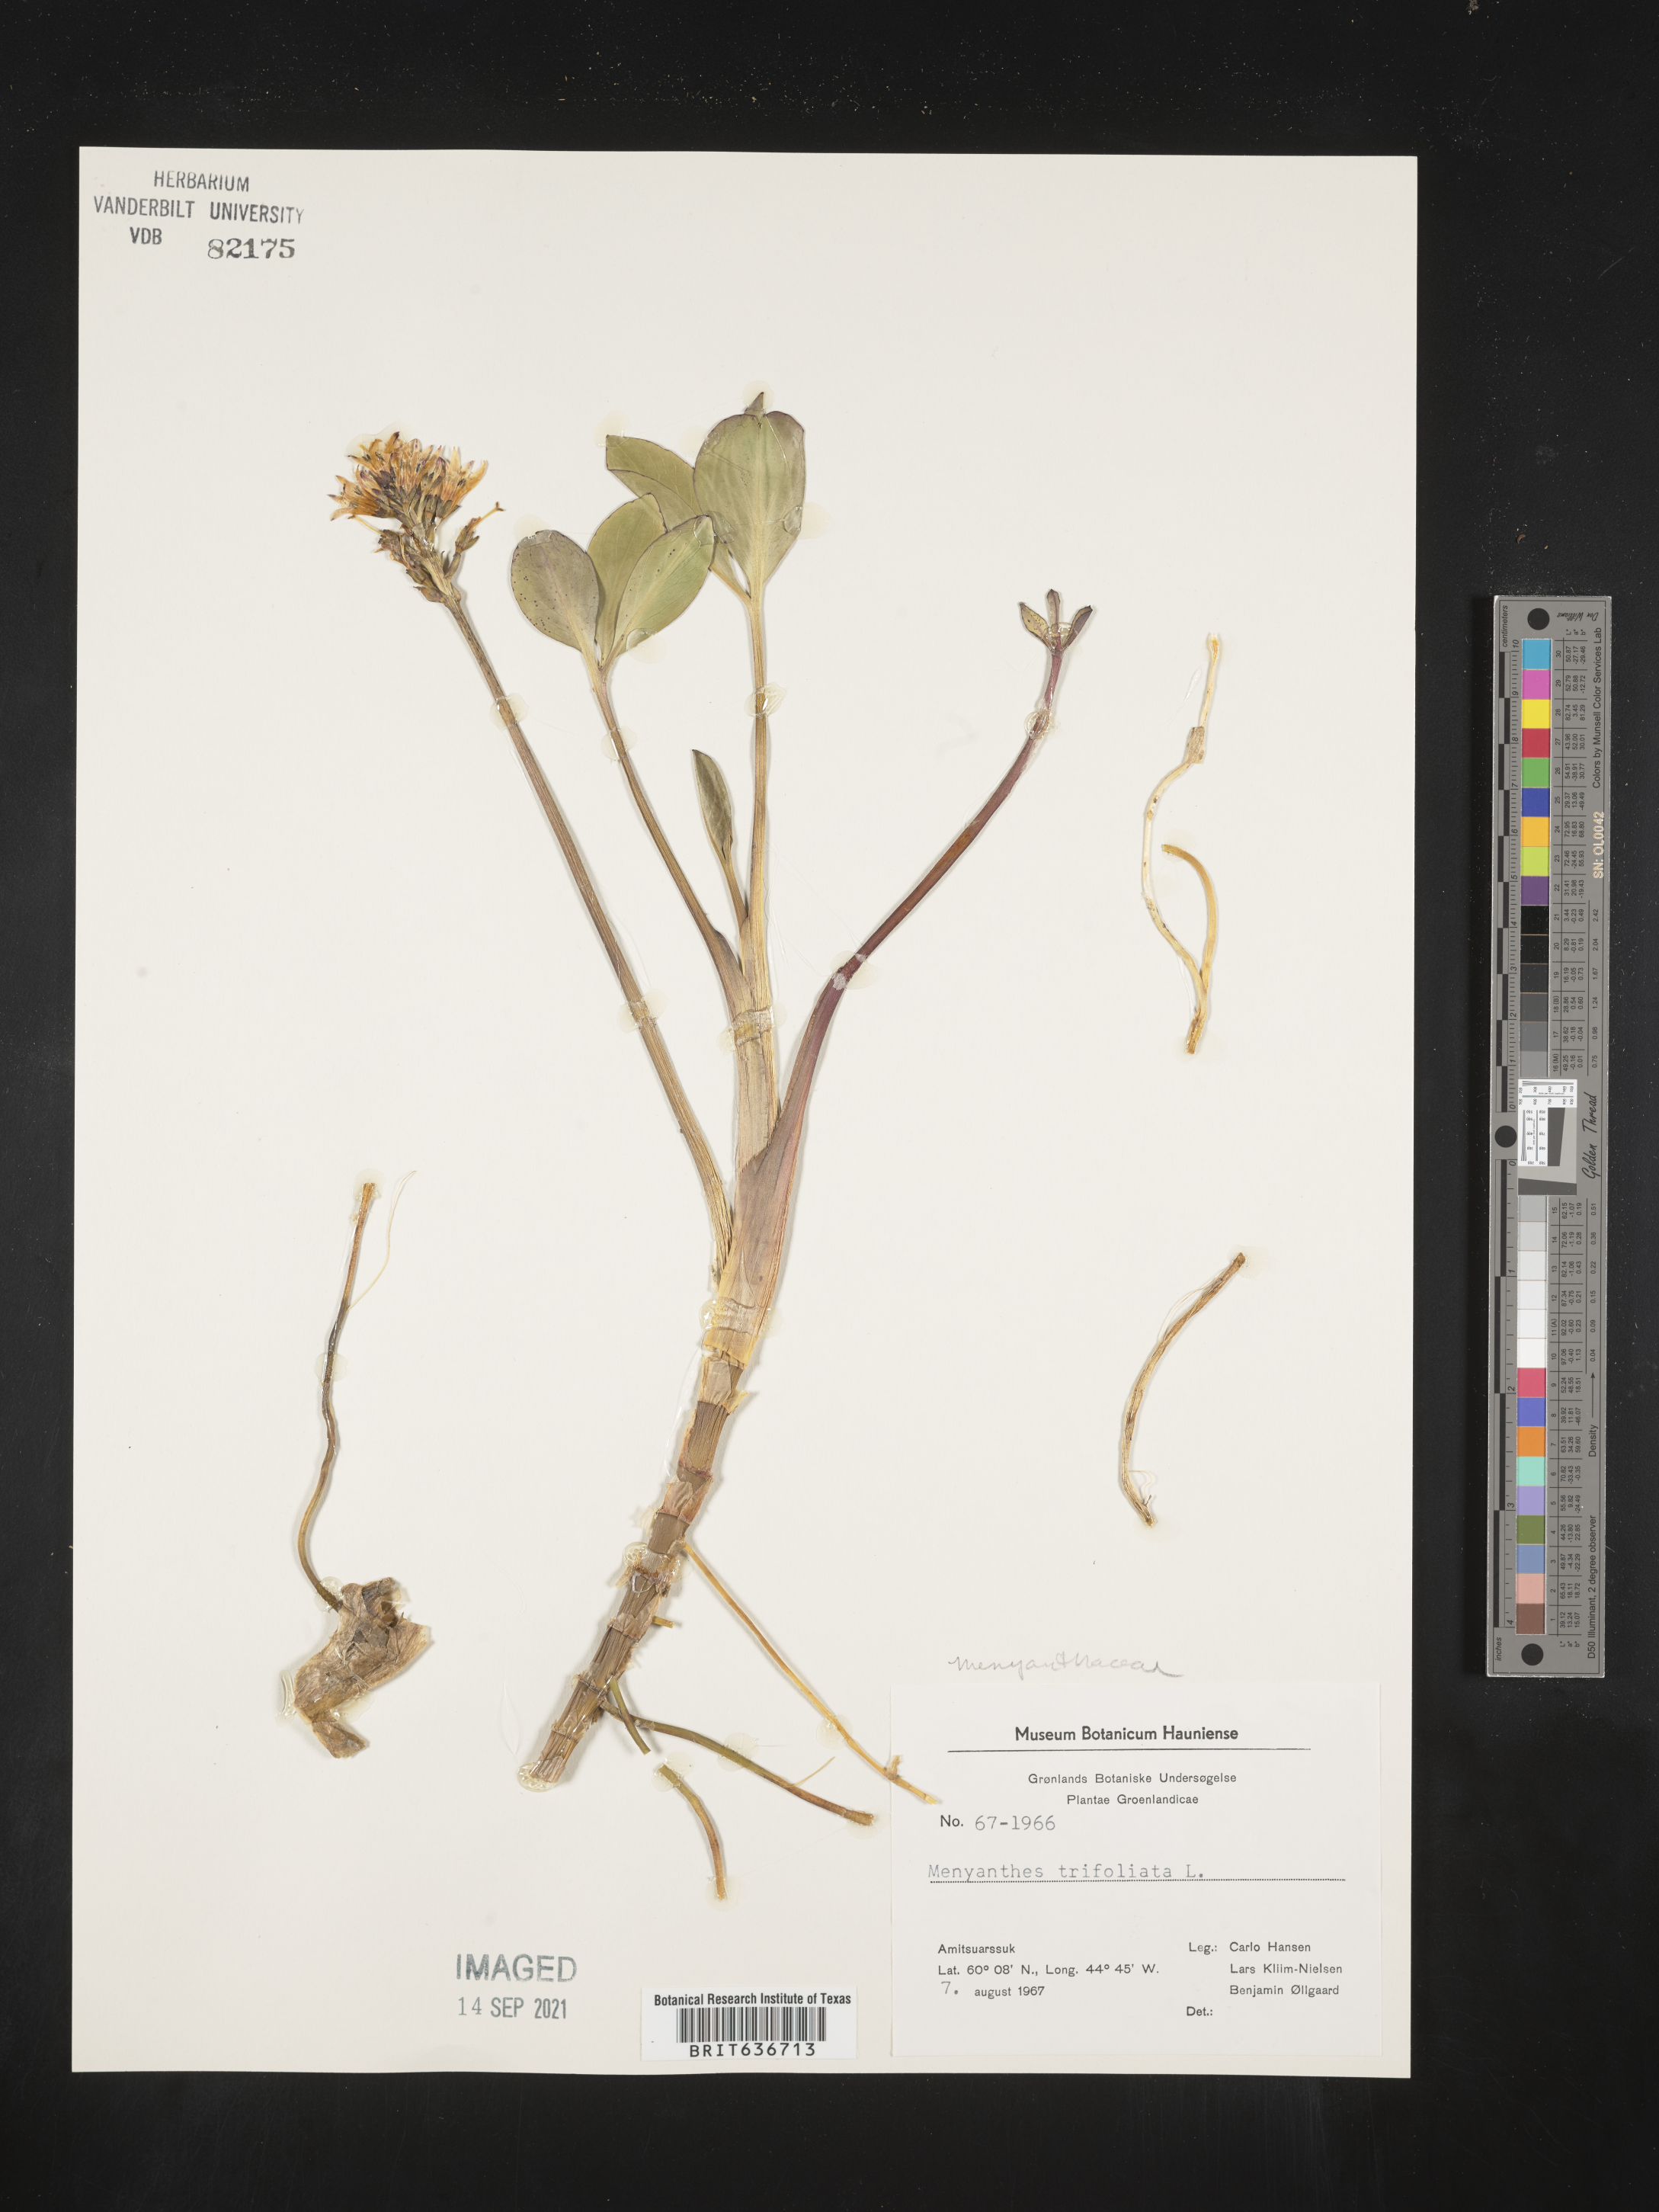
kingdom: Plantae
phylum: Tracheophyta
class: Magnoliopsida
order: Asterales
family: Menyanthaceae
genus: Menyanthes
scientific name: Menyanthes
